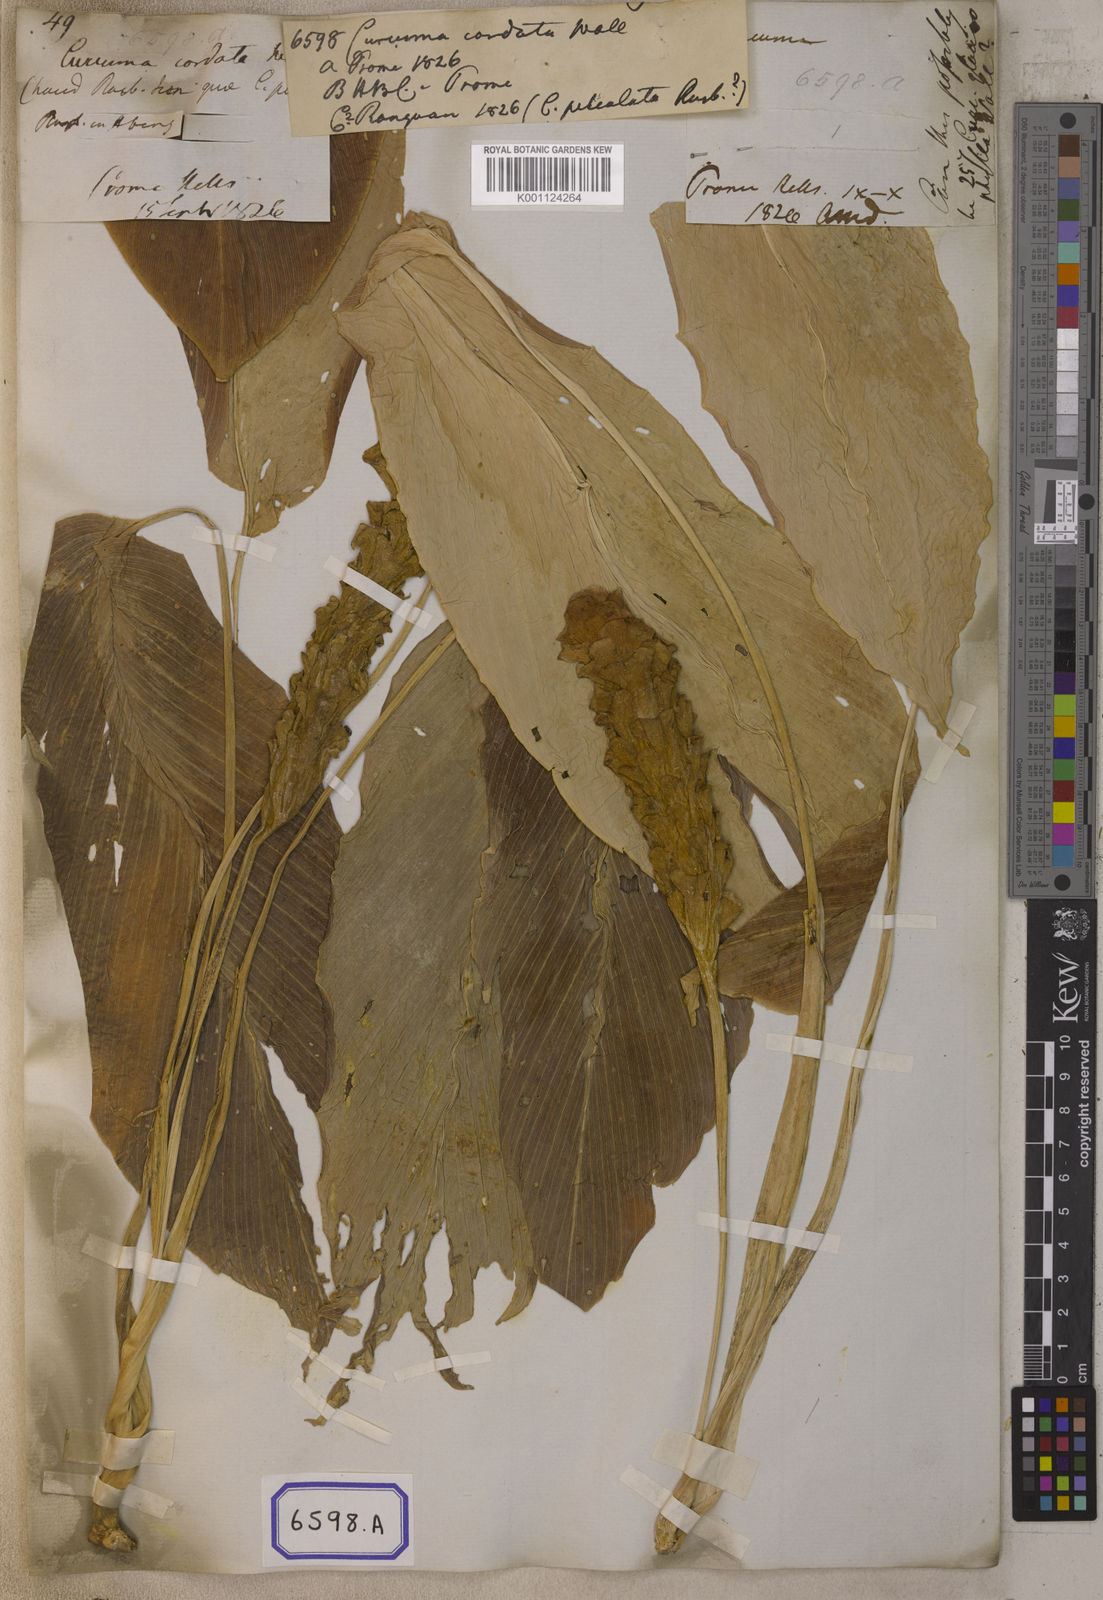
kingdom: Plantae
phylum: Tracheophyta
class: Liliopsida
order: Zingiberales
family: Zingiberaceae
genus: Curcuma
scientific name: Curcuma cordata
